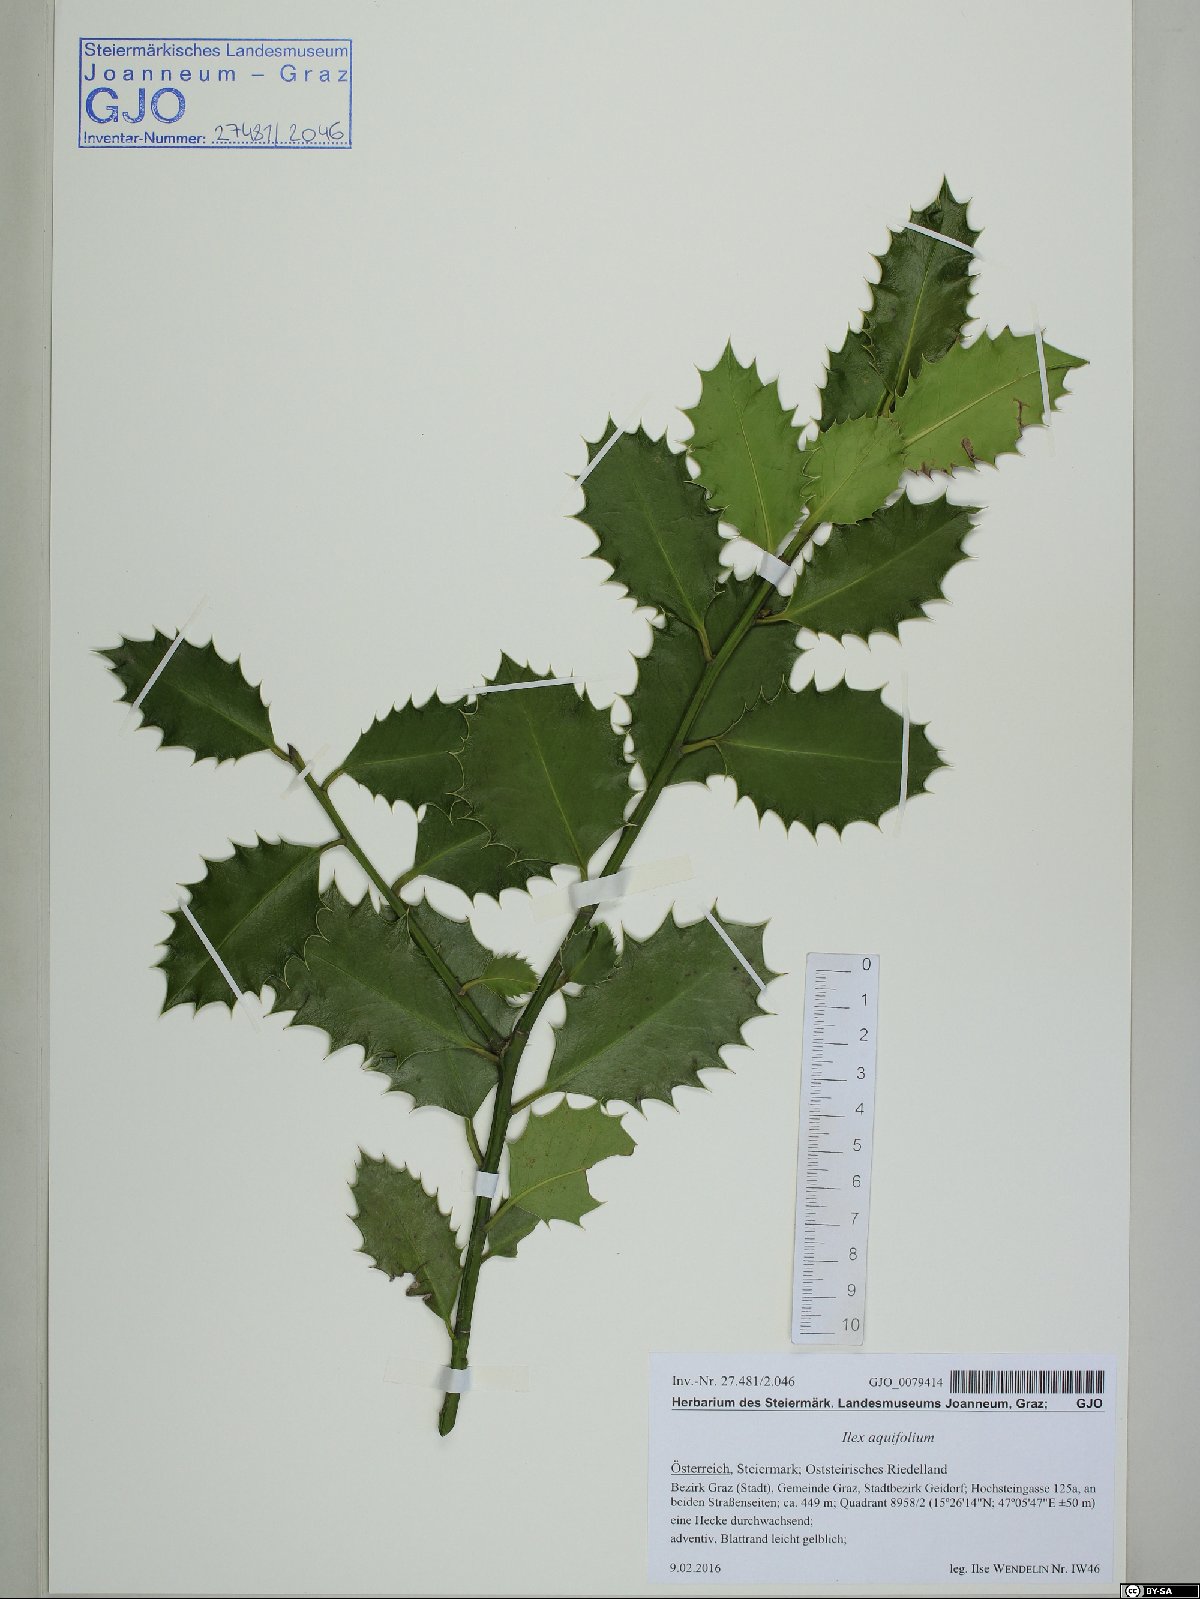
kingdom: Plantae
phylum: Tracheophyta
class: Magnoliopsida
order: Aquifoliales
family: Aquifoliaceae
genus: Ilex
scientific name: Ilex aquifolium
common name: English holly
